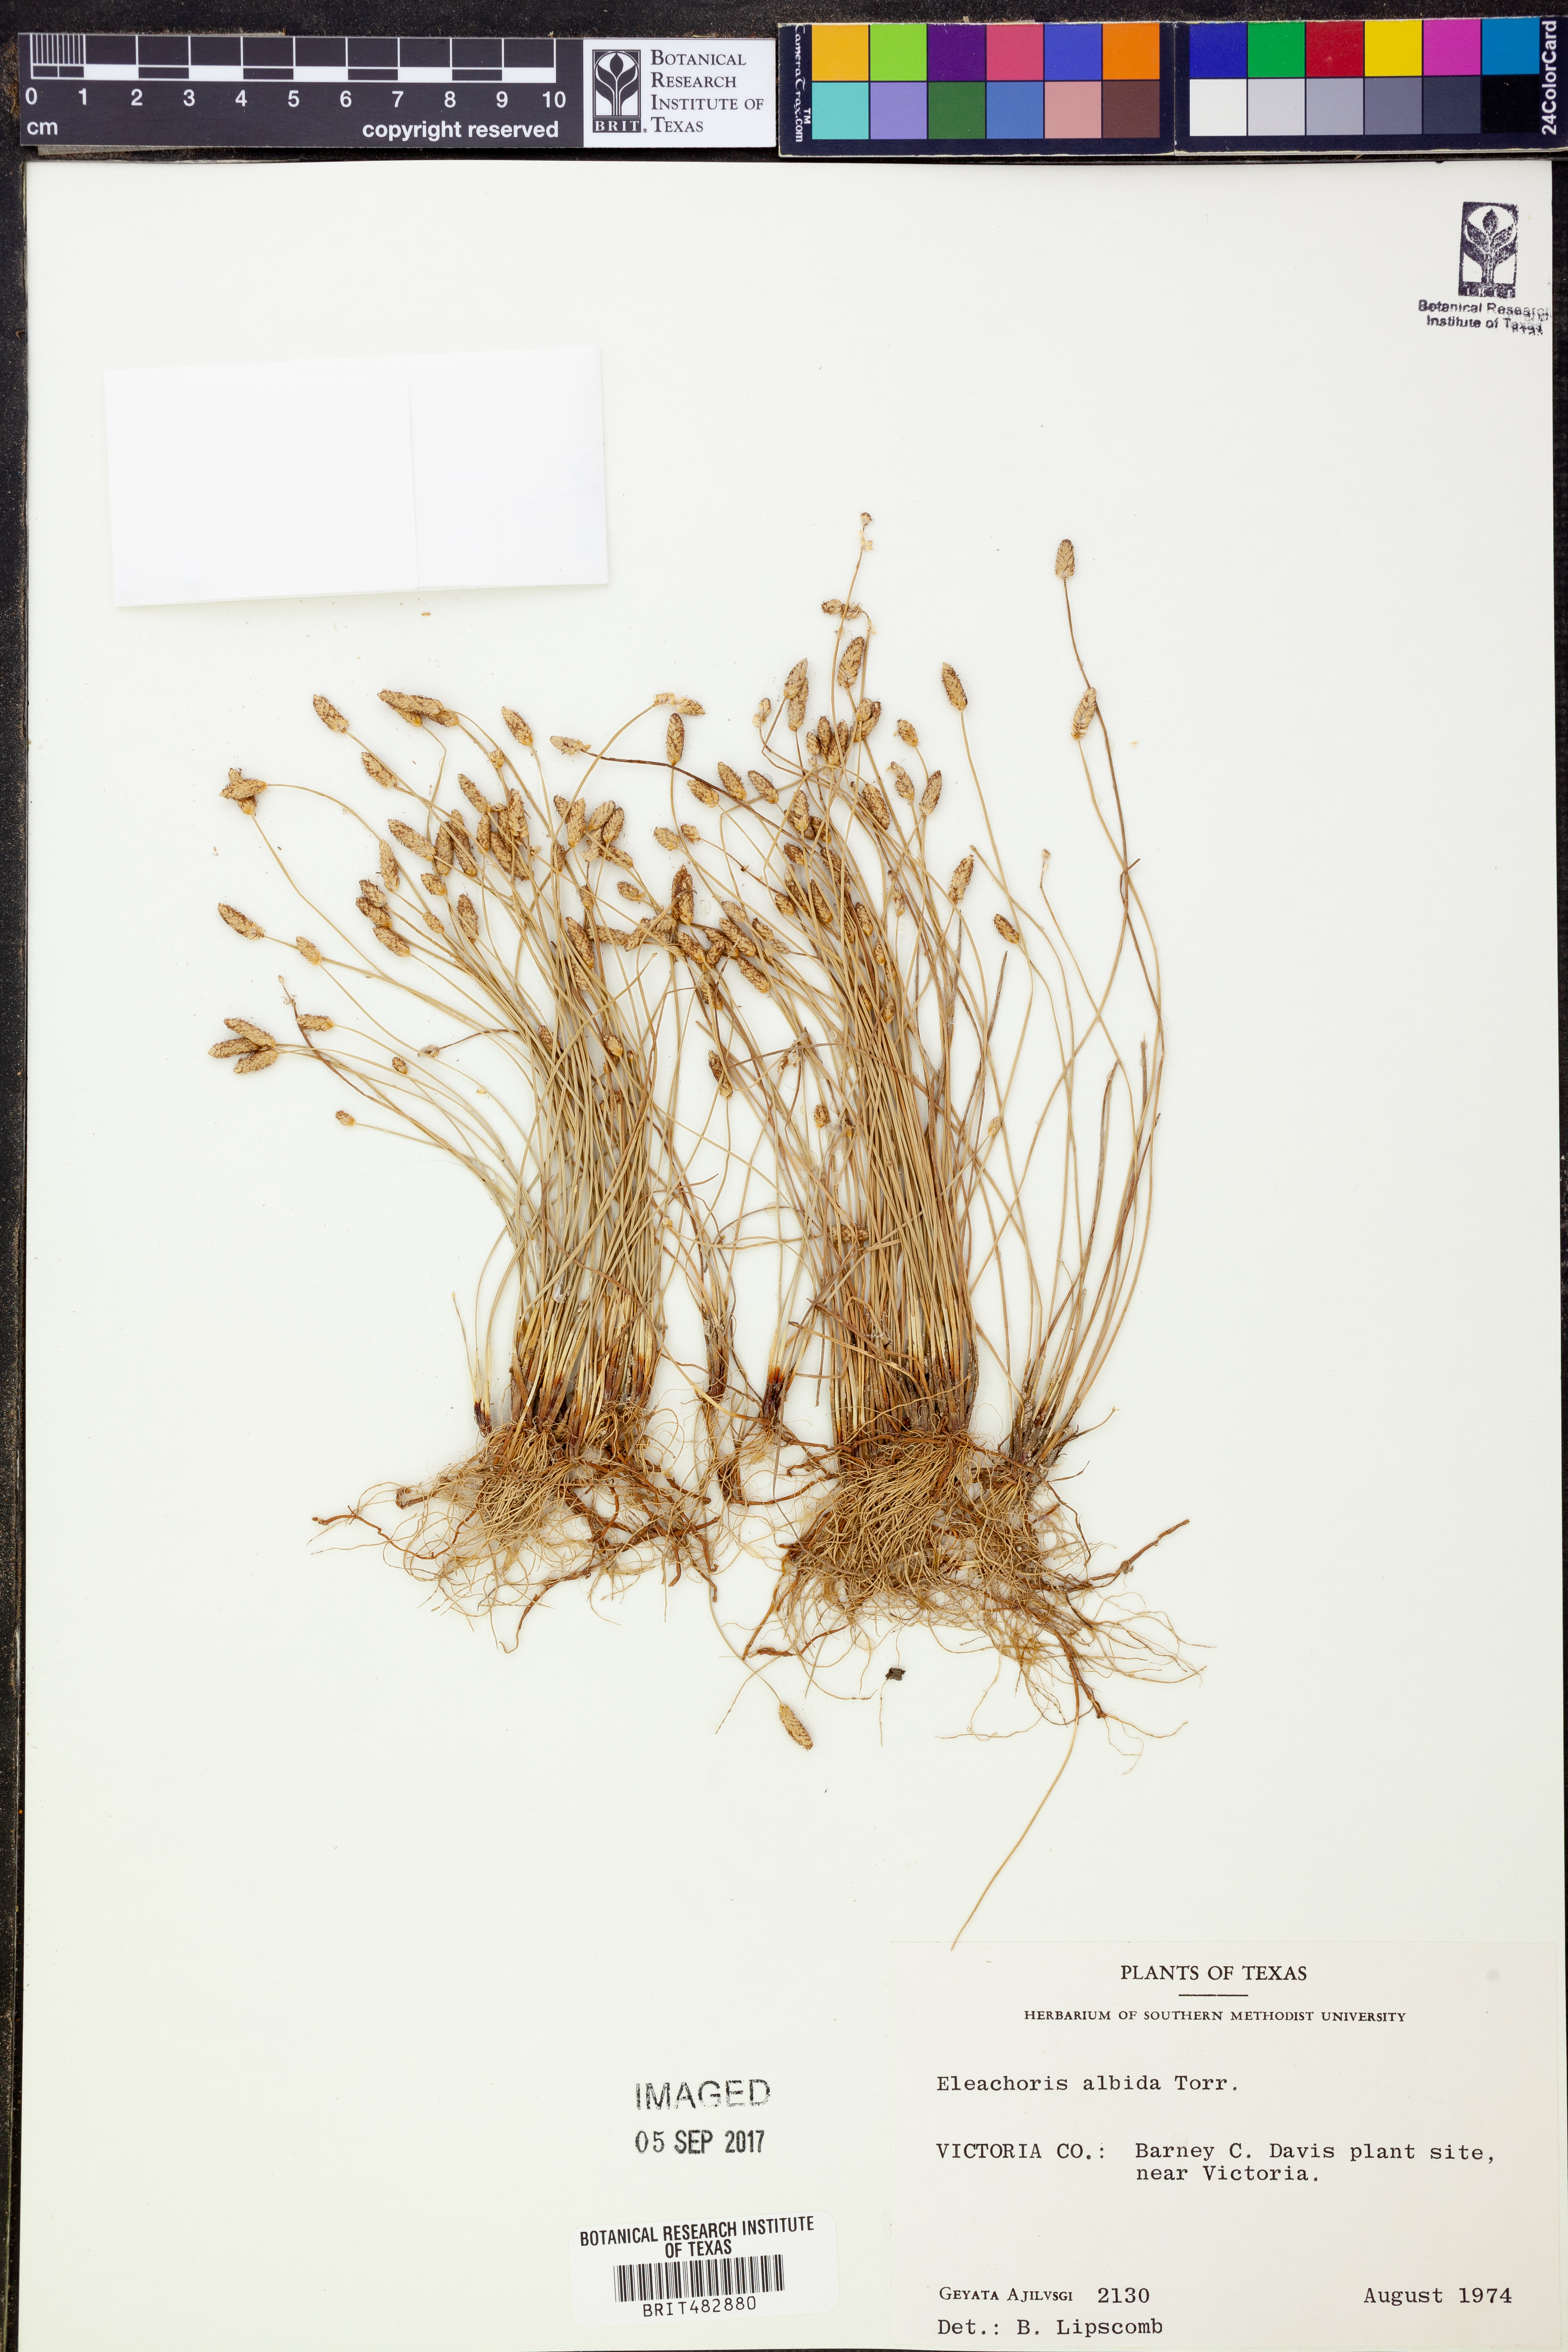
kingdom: Plantae
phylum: Tracheophyta
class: Liliopsida
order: Poales
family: Cyperaceae
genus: Eleocharis
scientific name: Eleocharis albida
